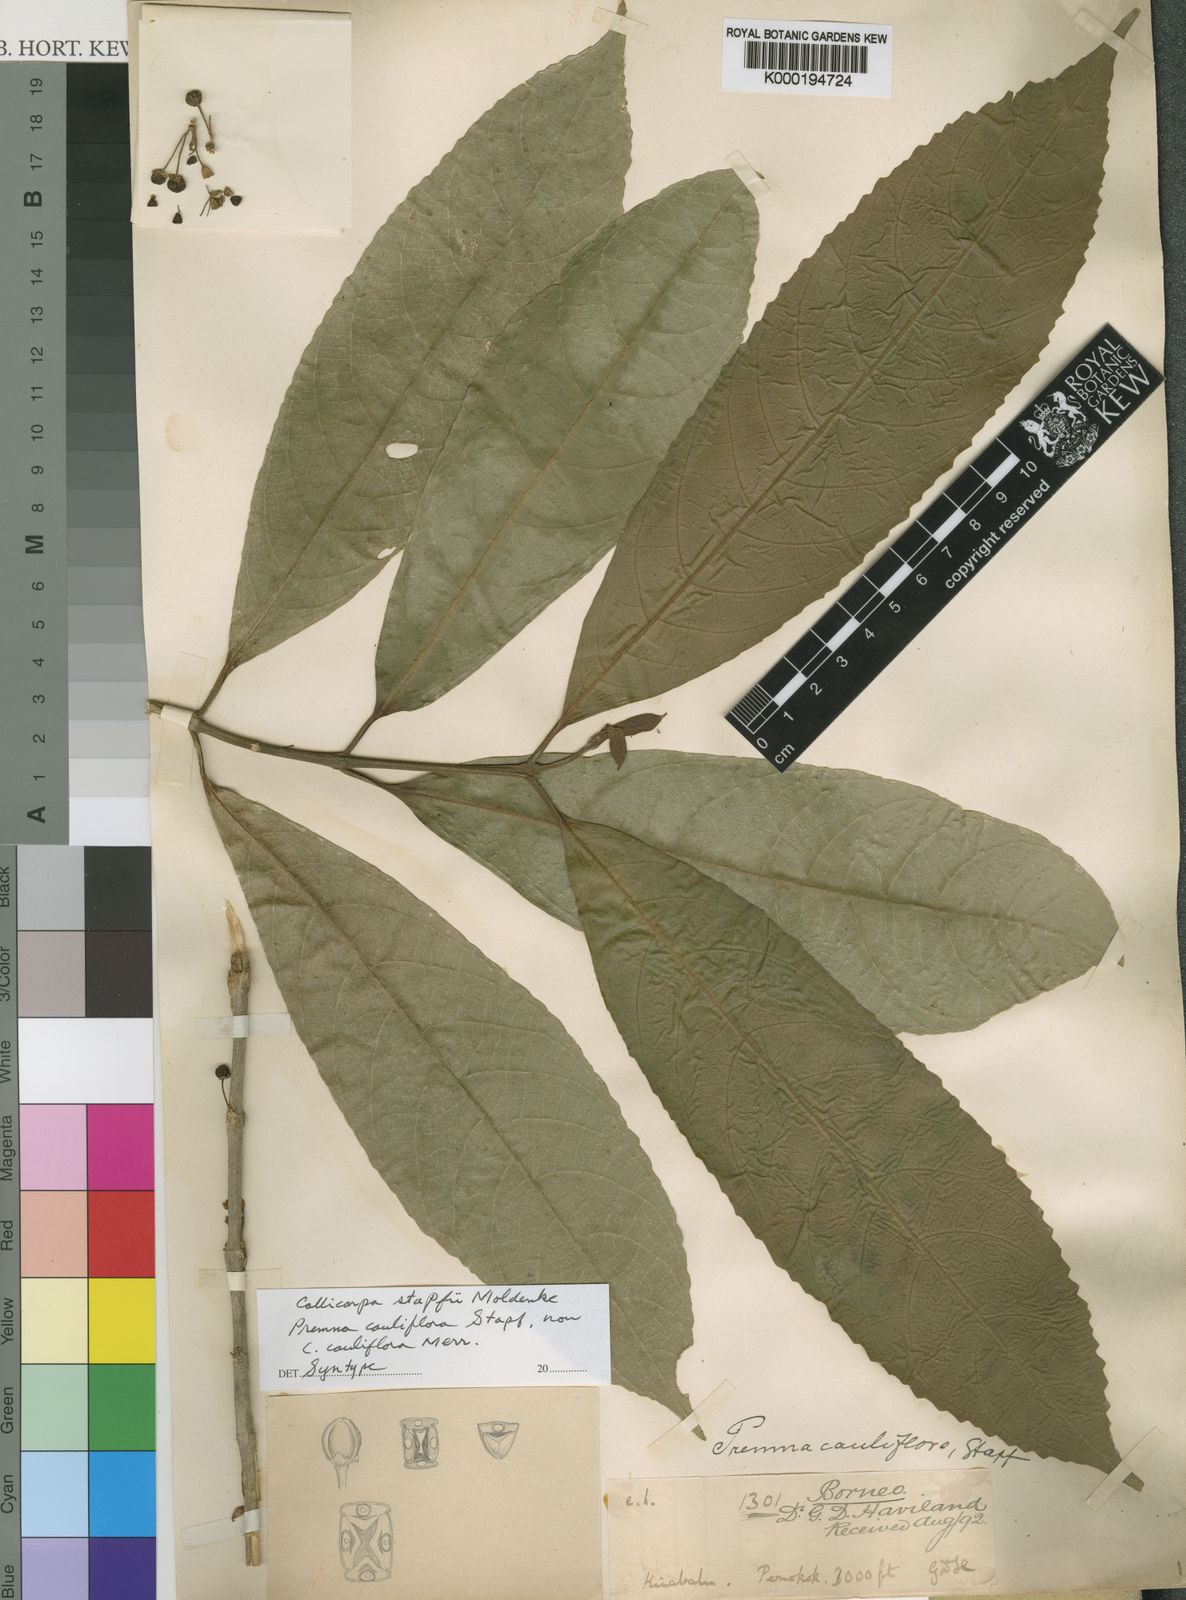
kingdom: Plantae
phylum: Tracheophyta
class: Magnoliopsida
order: Lamiales
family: Lamiaceae
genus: Callicarpa
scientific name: Callicarpa woodii
